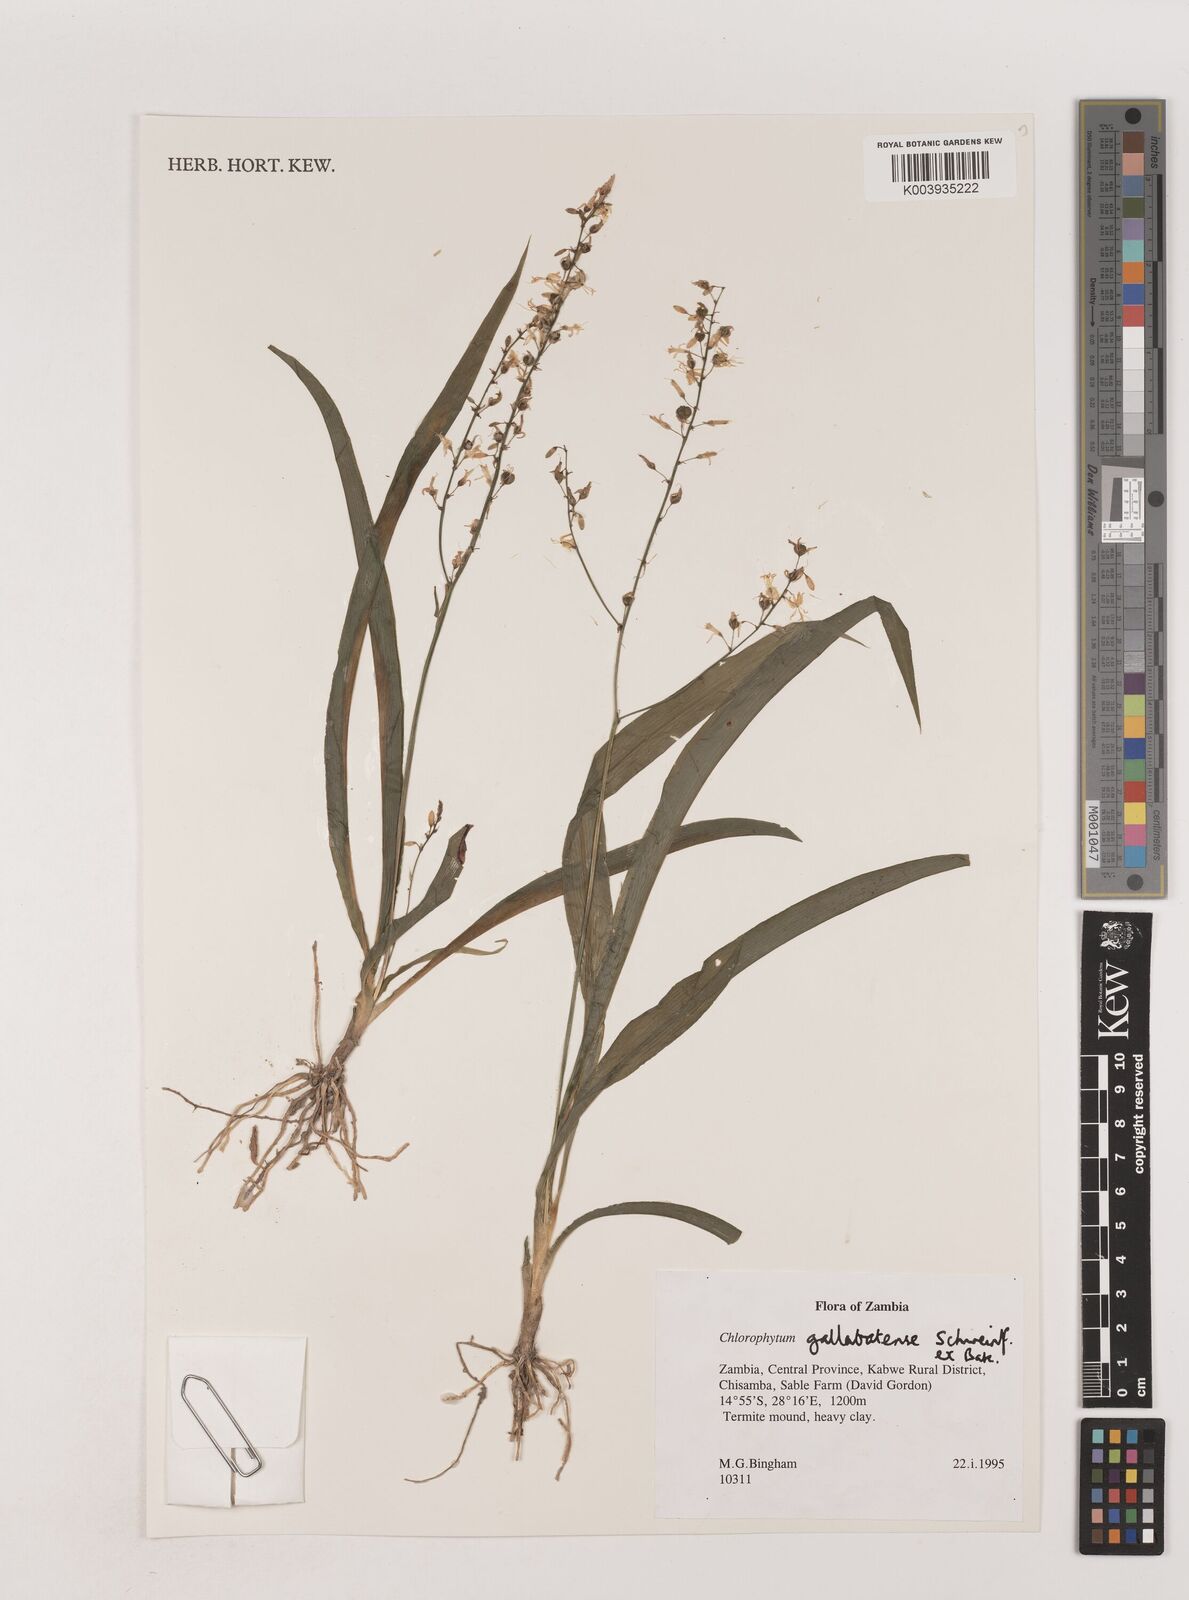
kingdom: Plantae
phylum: Tracheophyta
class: Liliopsida
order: Asparagales
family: Asparagaceae
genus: Chlorophytum
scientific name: Chlorophytum gallabatense
